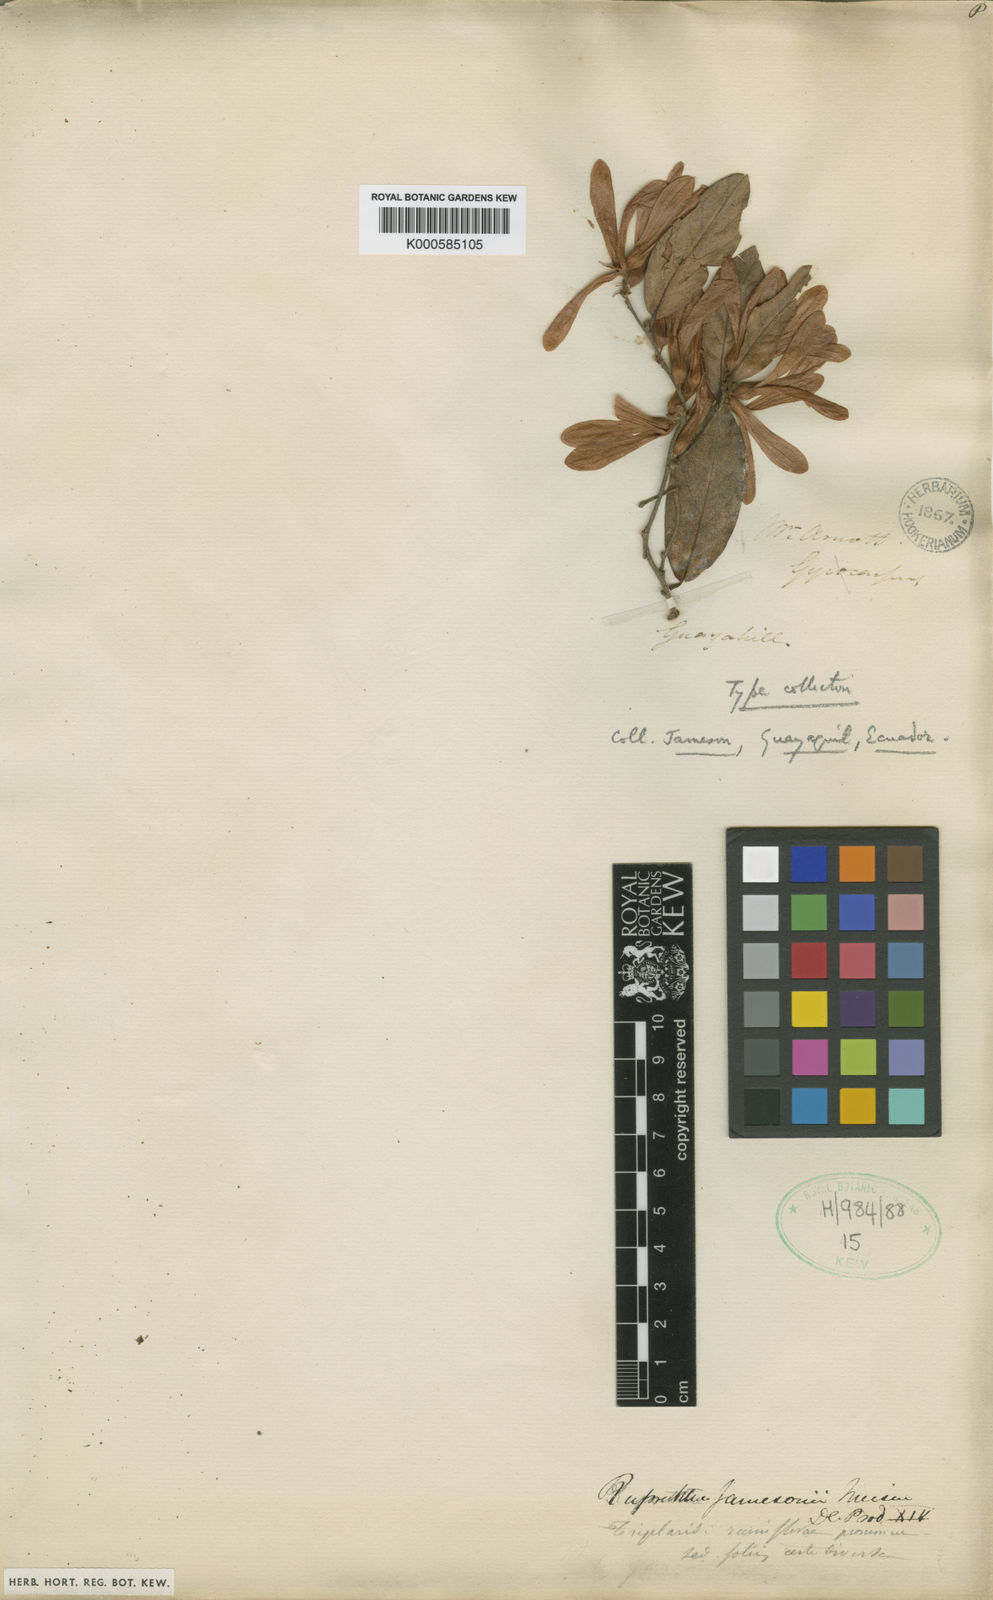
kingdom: Plantae
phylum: Tracheophyta
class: Magnoliopsida
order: Caryophyllales
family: Polygonaceae
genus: Ruprechtia
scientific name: Ruprechtia jamesonii
